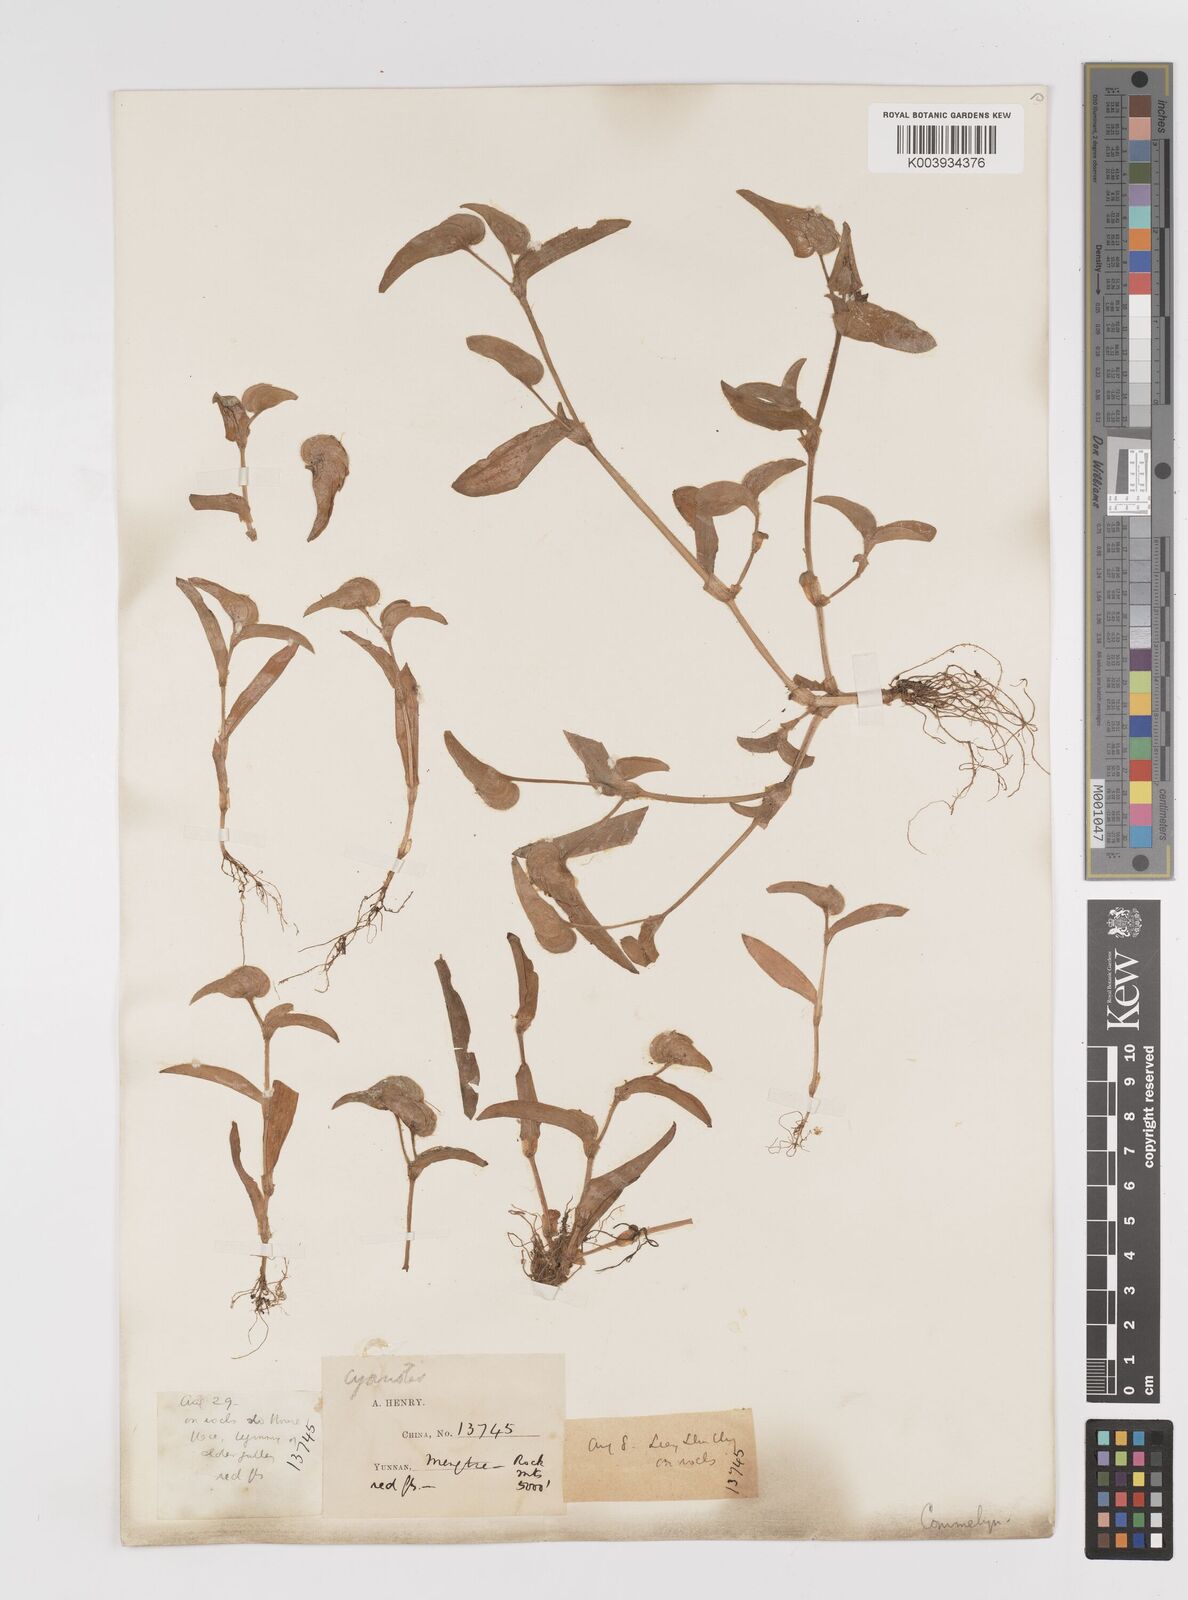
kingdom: Plantae
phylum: Tracheophyta
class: Liliopsida
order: Commelinales
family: Commelinaceae
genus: Cyanotis
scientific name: Cyanotis
